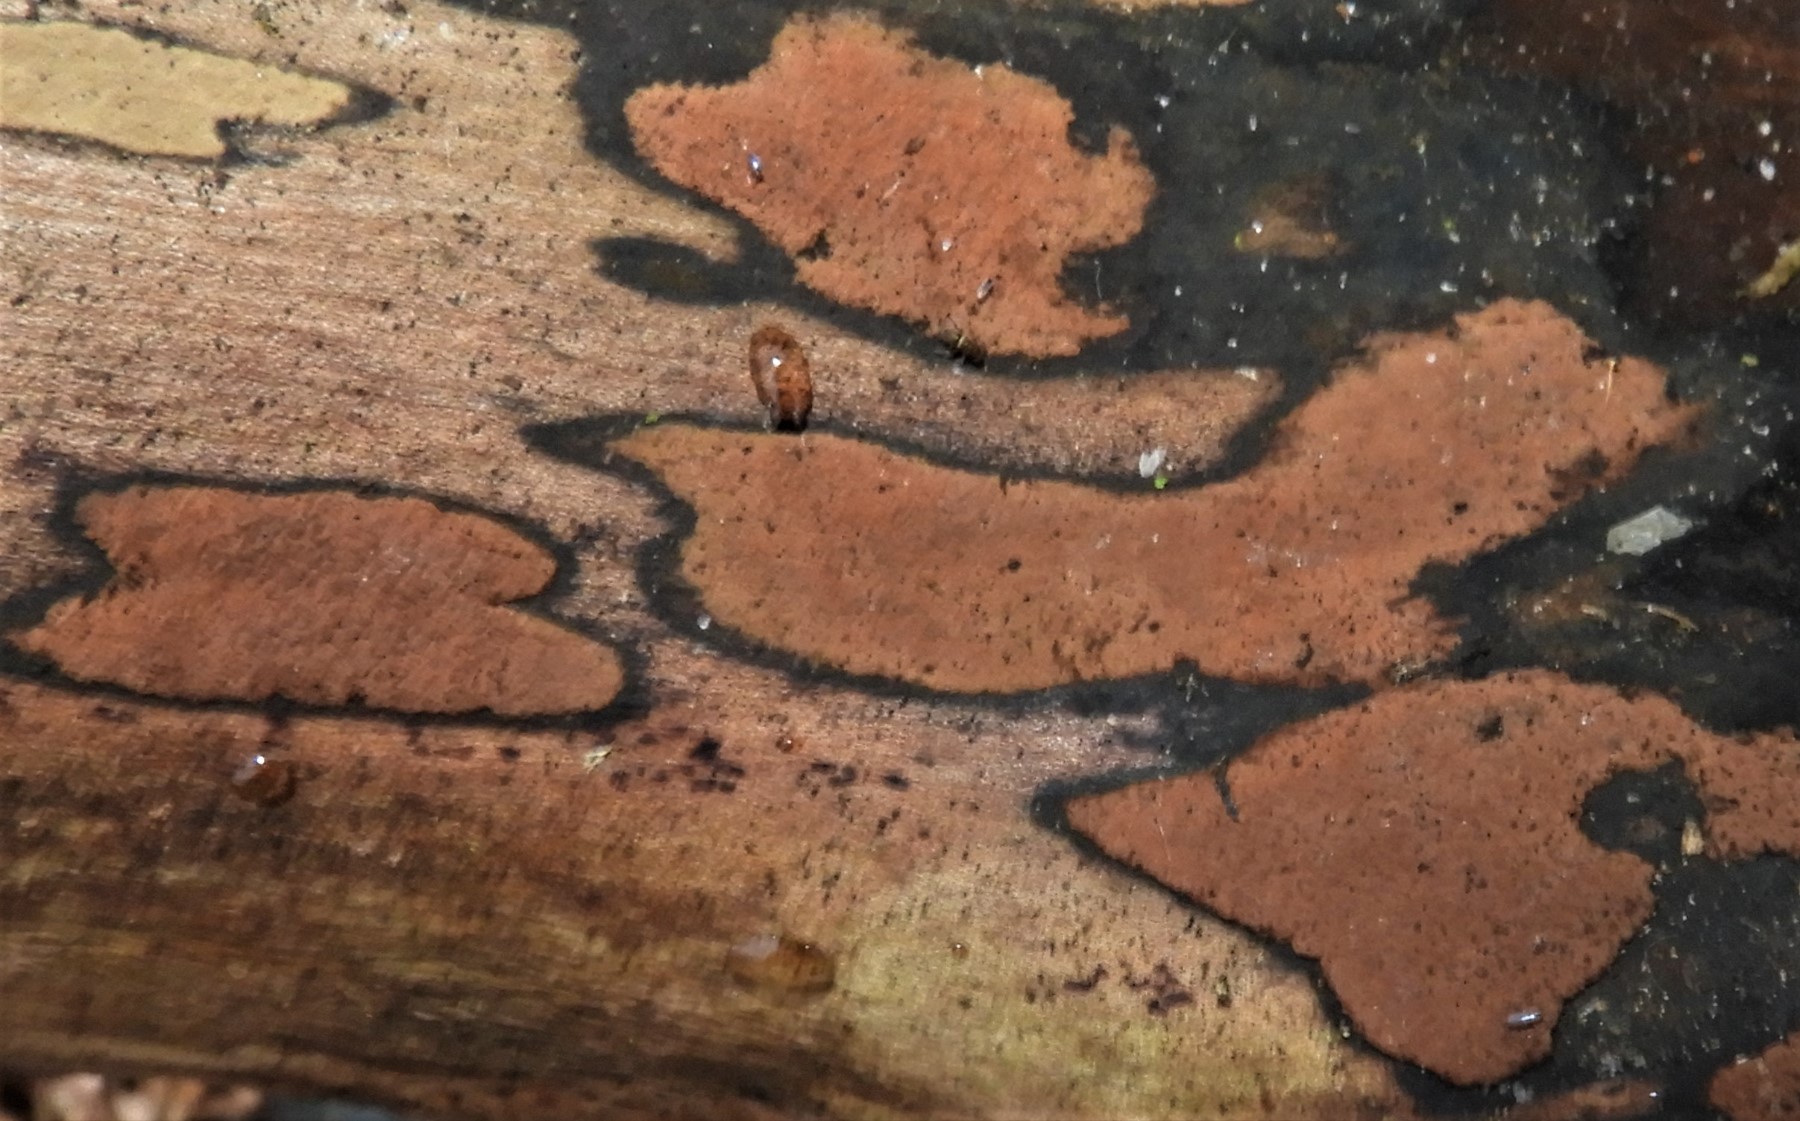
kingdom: Fungi
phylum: Ascomycota
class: Sordariomycetes
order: Xylariales
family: Hypoxylaceae
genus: Hypoxylon
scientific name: Hypoxylon petriniae
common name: nedsænket kulbær
